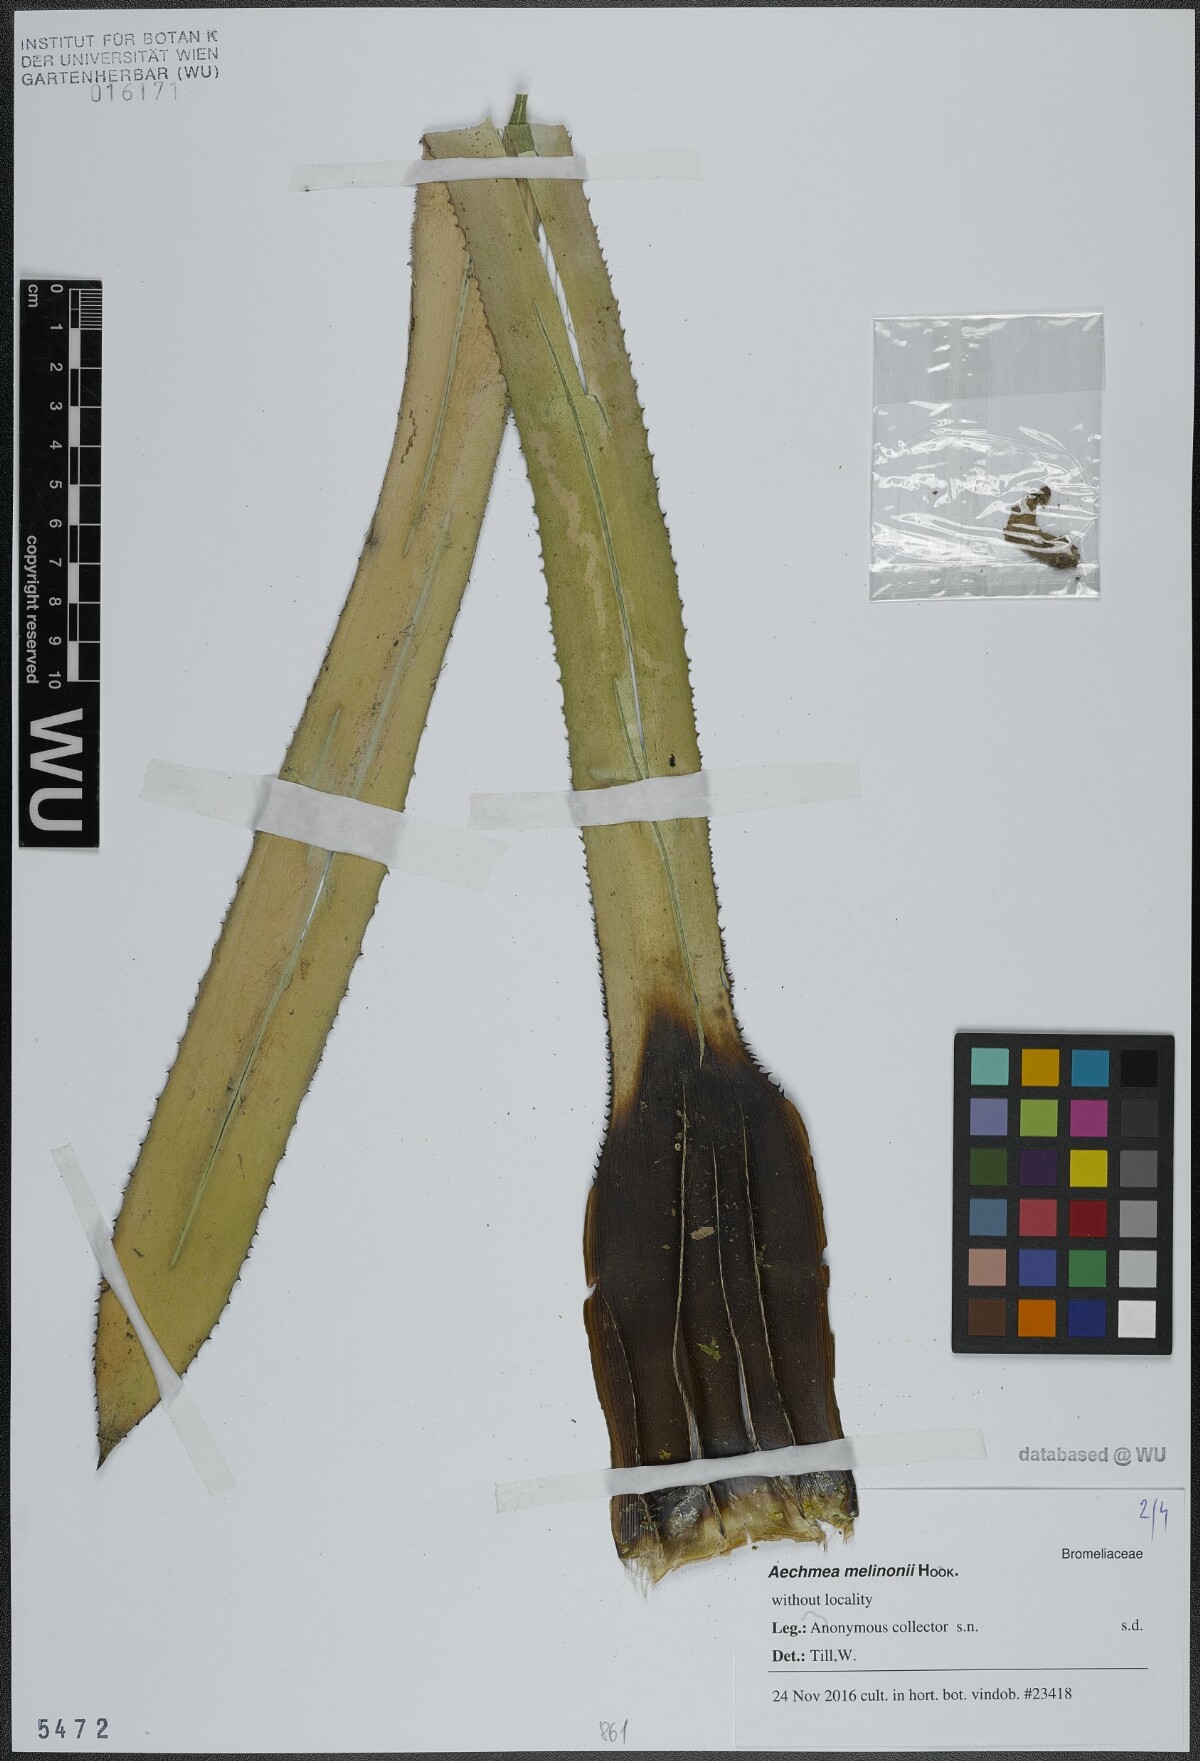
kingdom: Plantae
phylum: Tracheophyta
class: Liliopsida
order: Poales
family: Bromeliaceae
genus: Aechmea
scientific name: Aechmea melinonii
